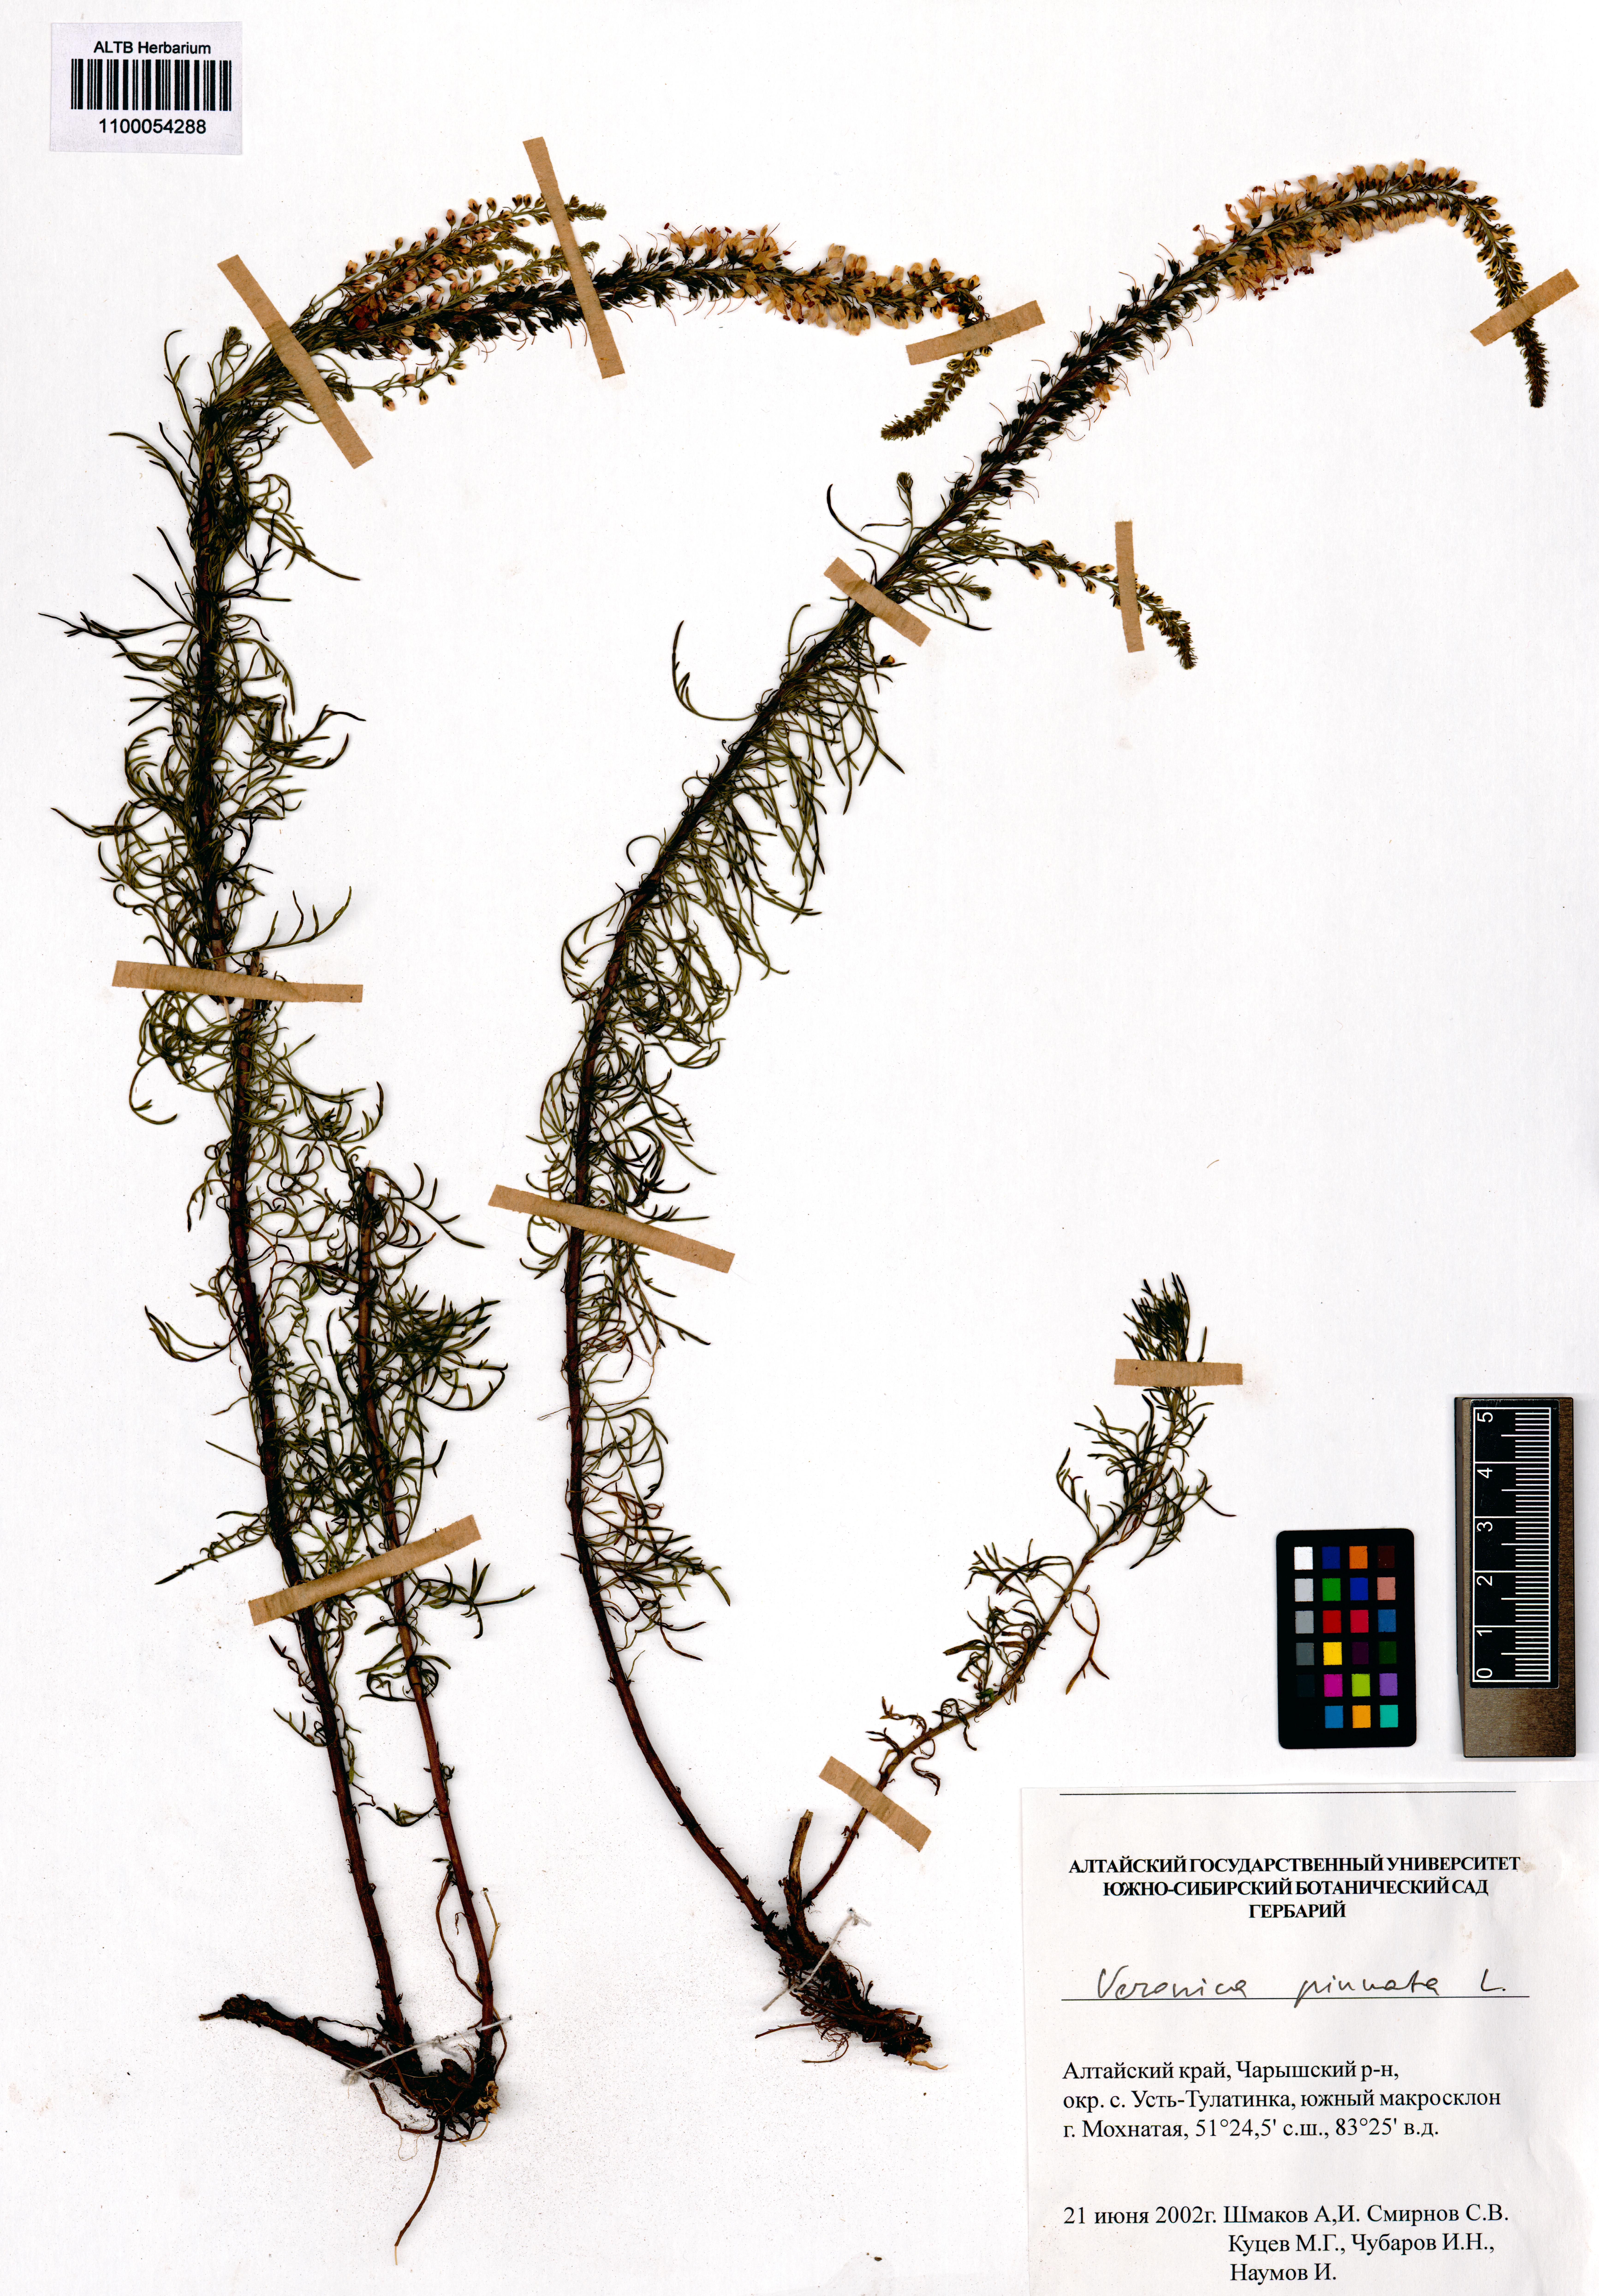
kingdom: Plantae
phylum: Tracheophyta
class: Magnoliopsida
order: Lamiales
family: Plantaginaceae
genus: Veronica
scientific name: Veronica pinnata
